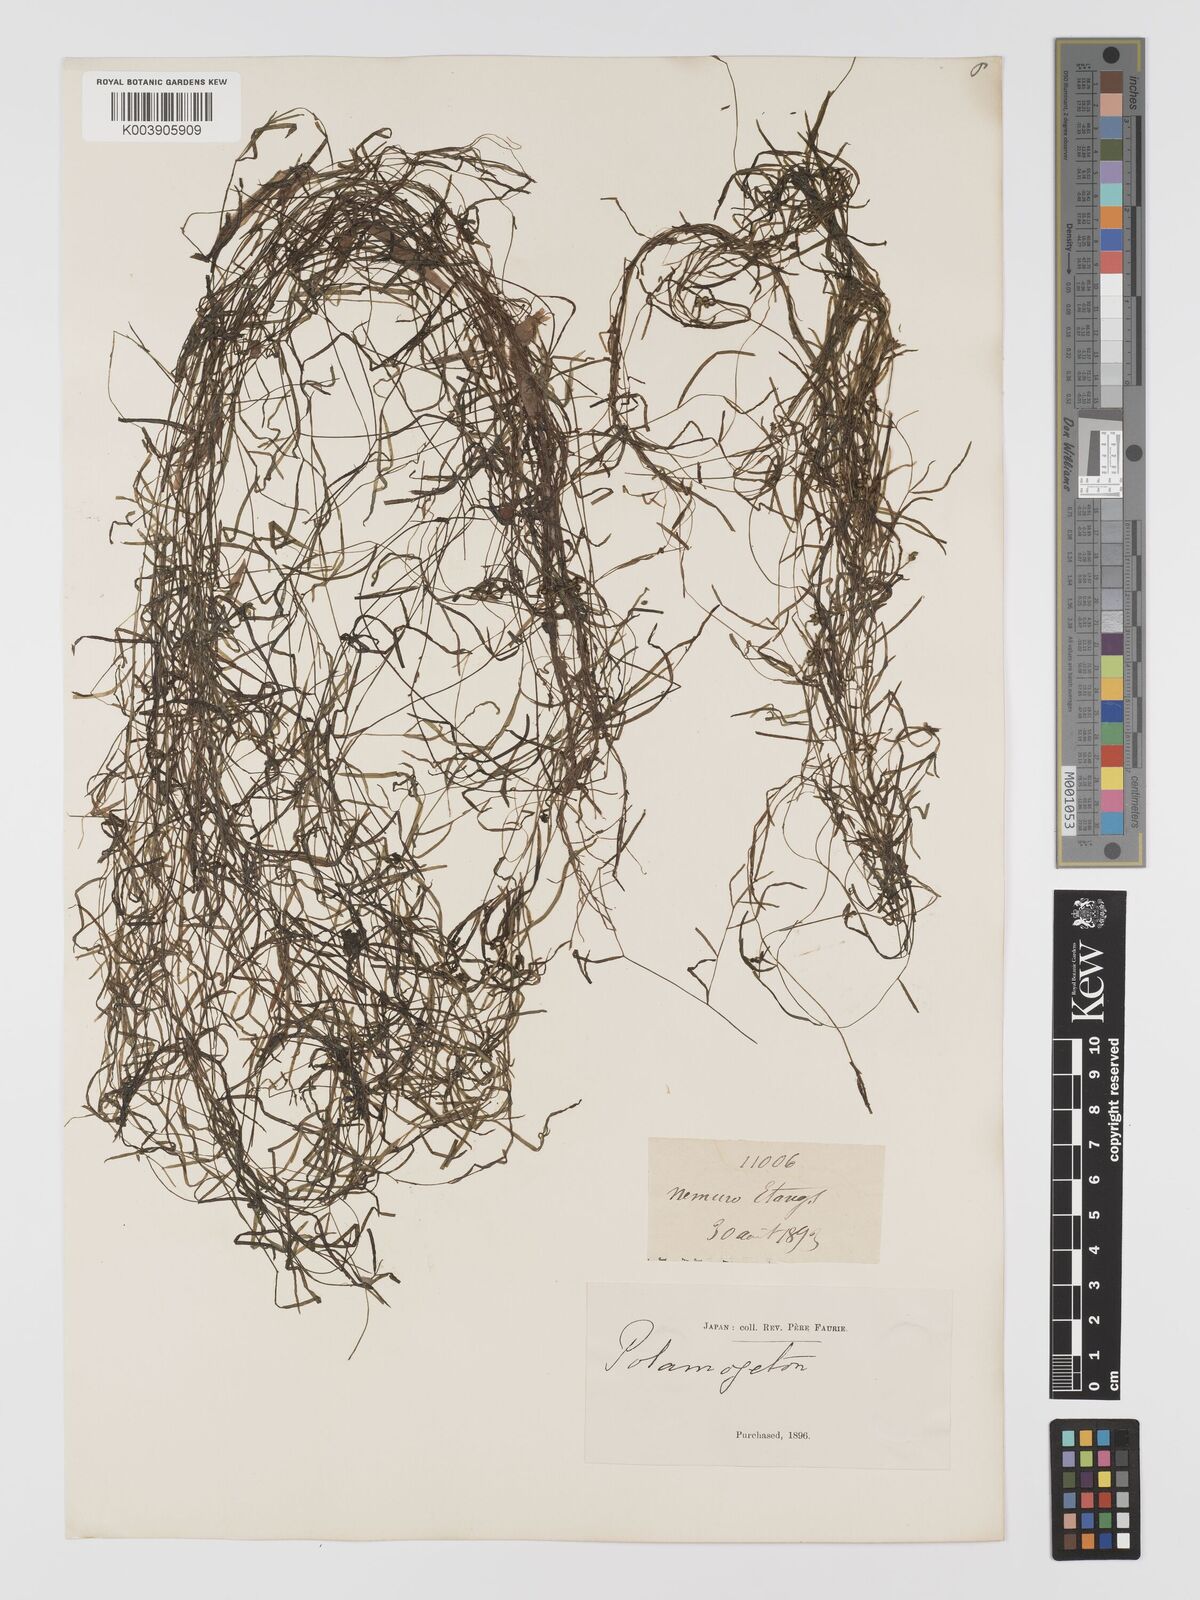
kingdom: Plantae
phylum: Tracheophyta
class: Liliopsida
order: Alismatales
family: Potamogetonaceae
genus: Potamogeton
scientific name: Potamogeton pusillus
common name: Lesser pondweed
